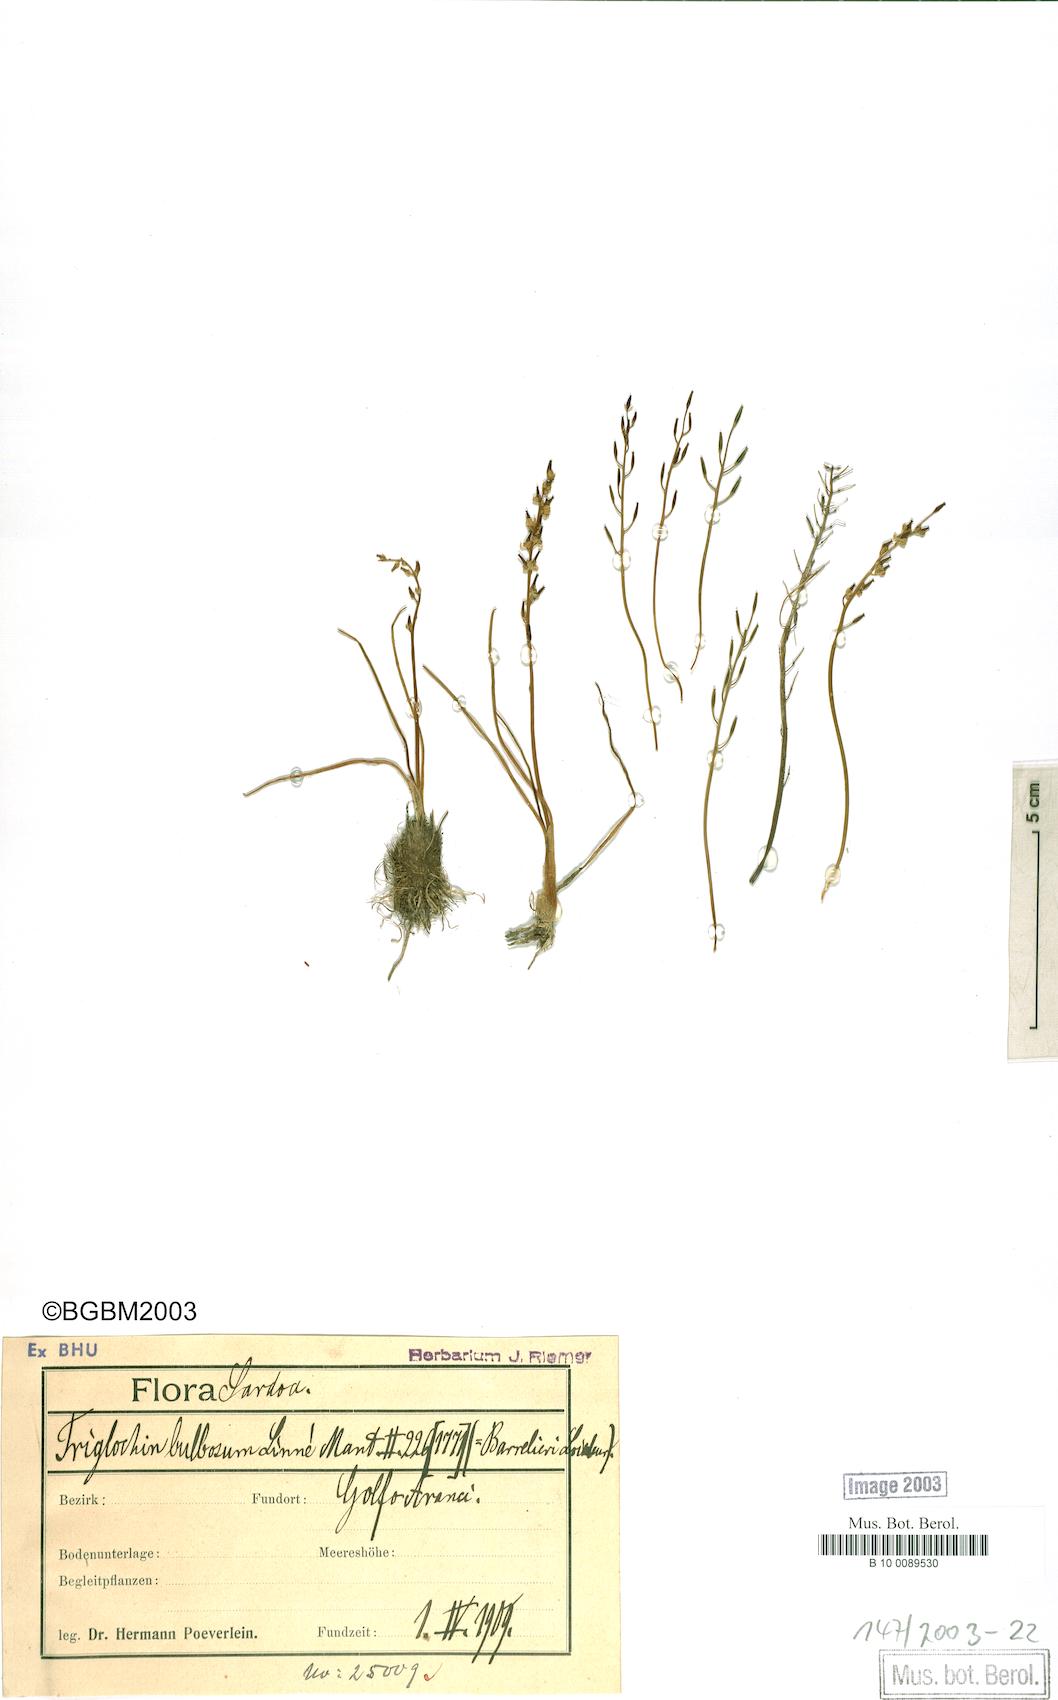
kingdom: Plantae
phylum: Tracheophyta
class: Liliopsida
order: Alismatales
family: Juncaginaceae
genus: Triglochin
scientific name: Triglochin bulbosa
